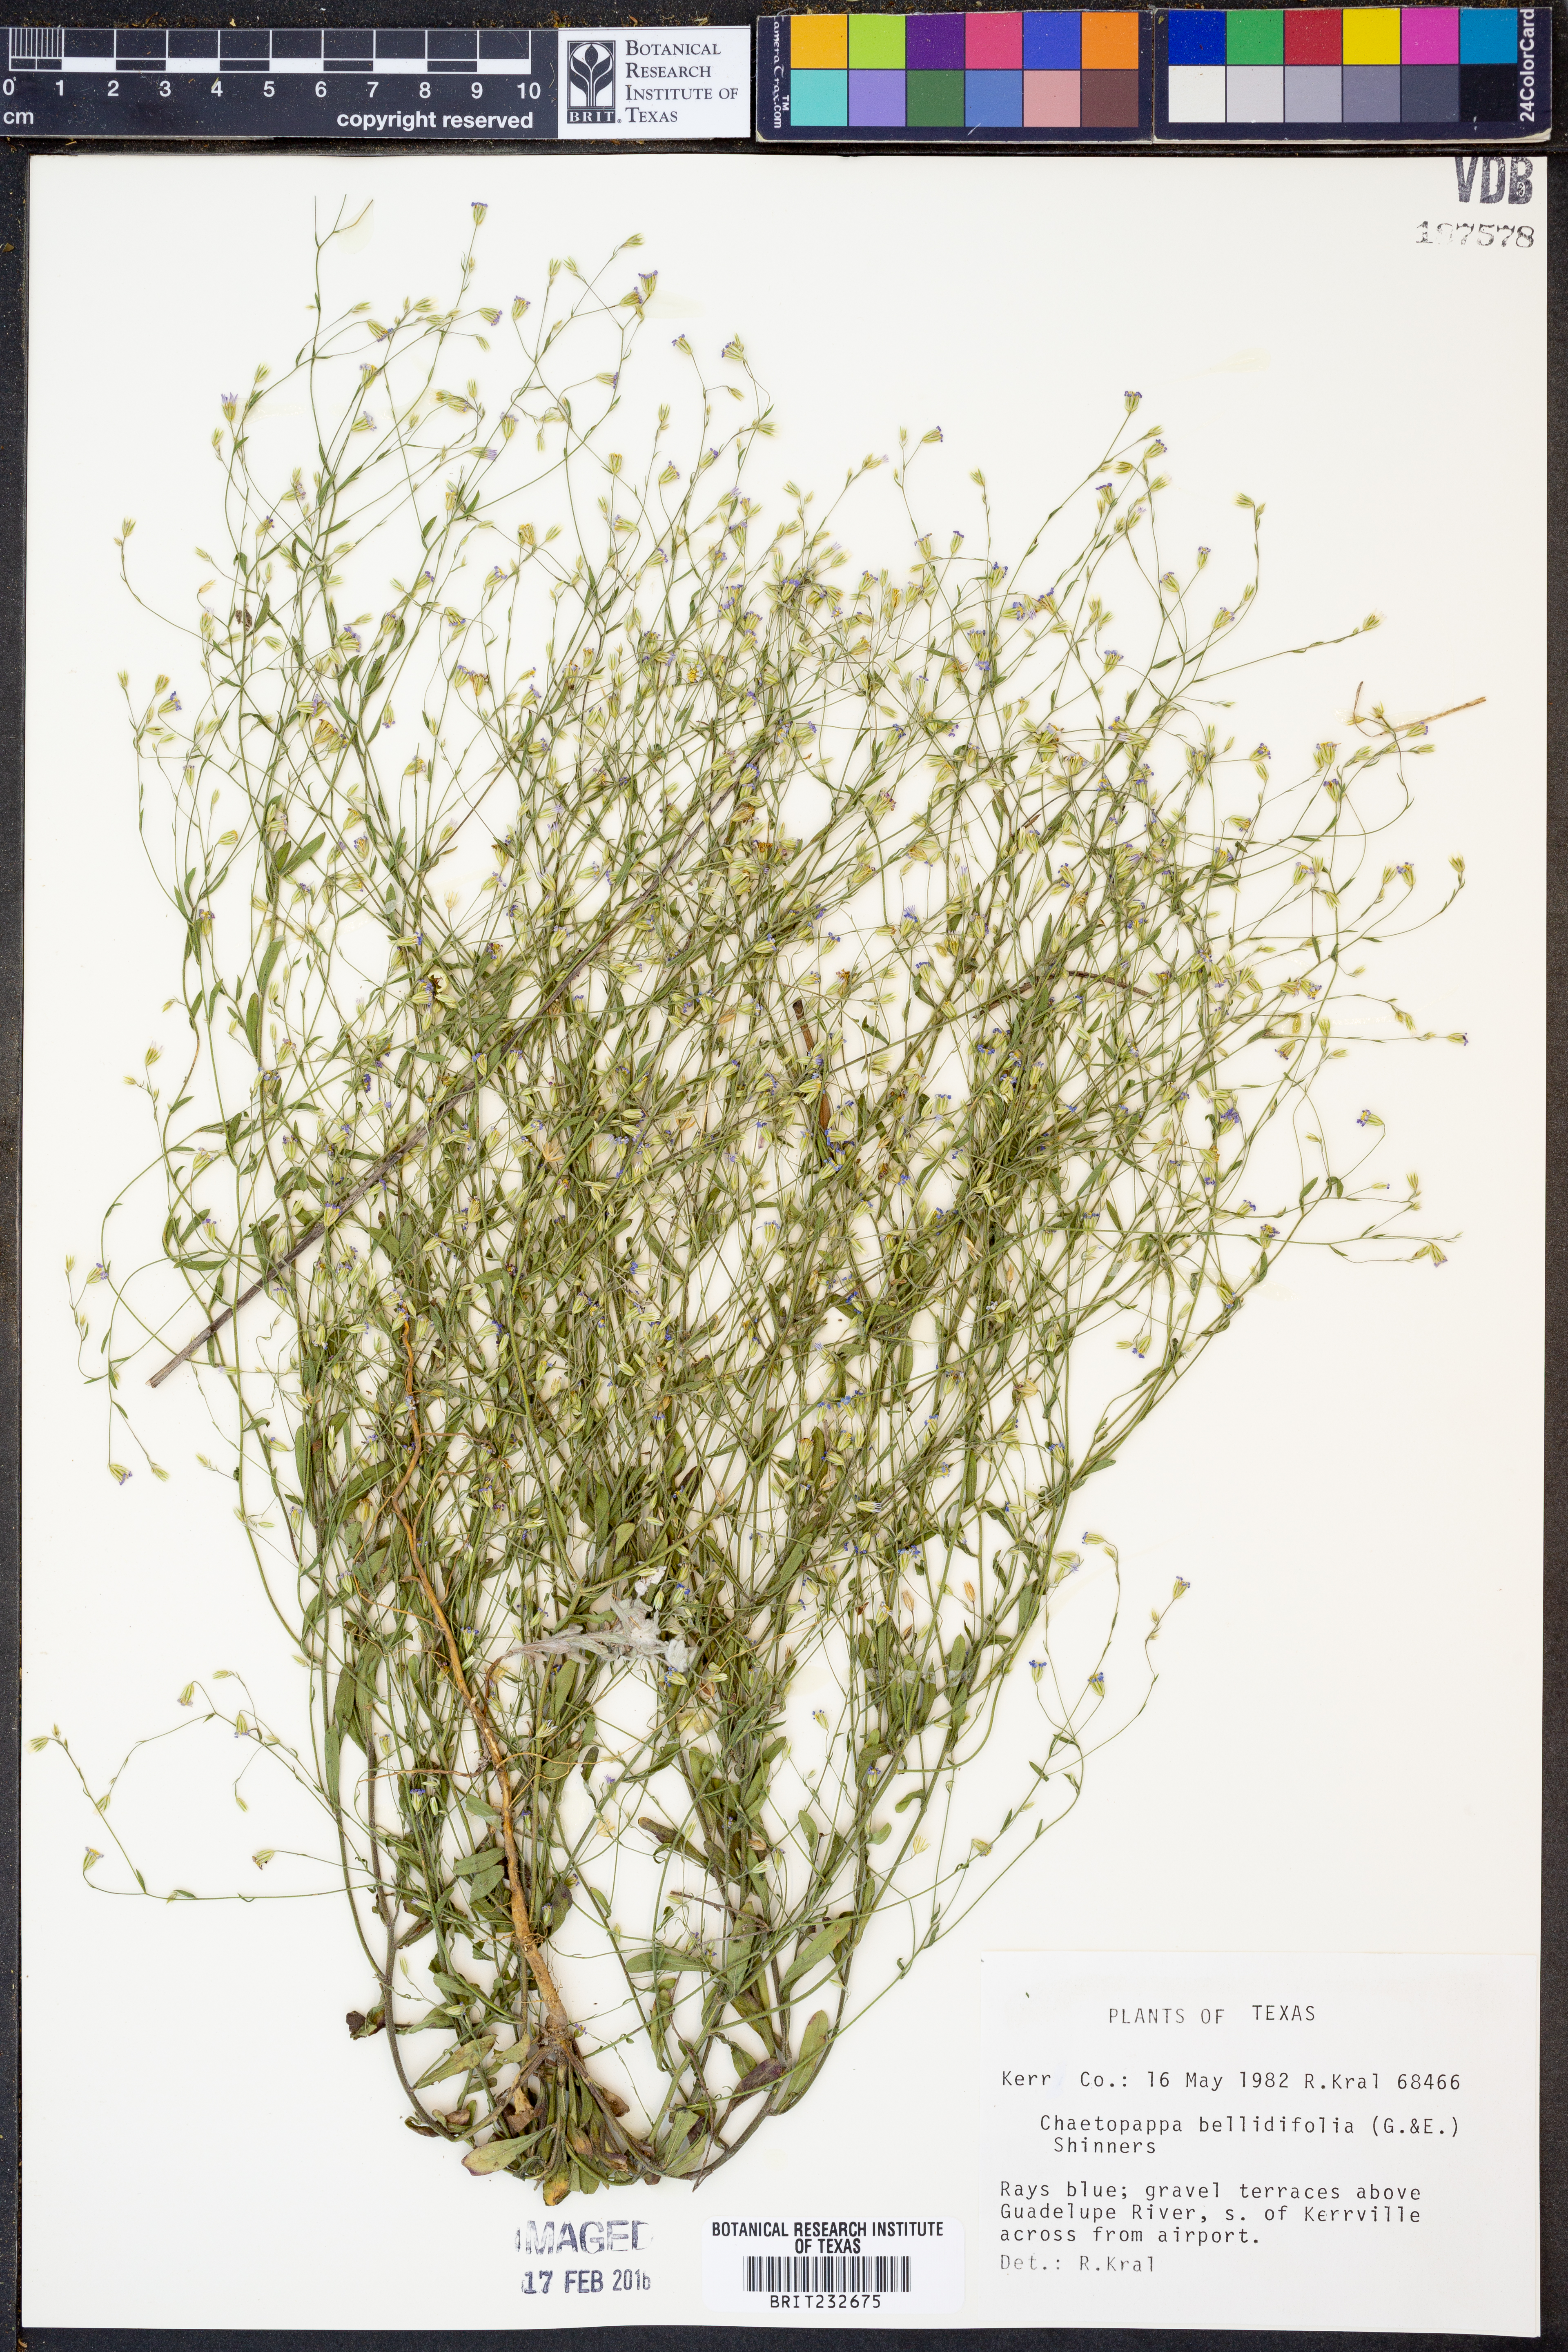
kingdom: Plantae
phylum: Tracheophyta
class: Magnoliopsida
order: Asterales
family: Asteraceae
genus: Chaetopappa
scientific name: Chaetopappa bellidifolia
